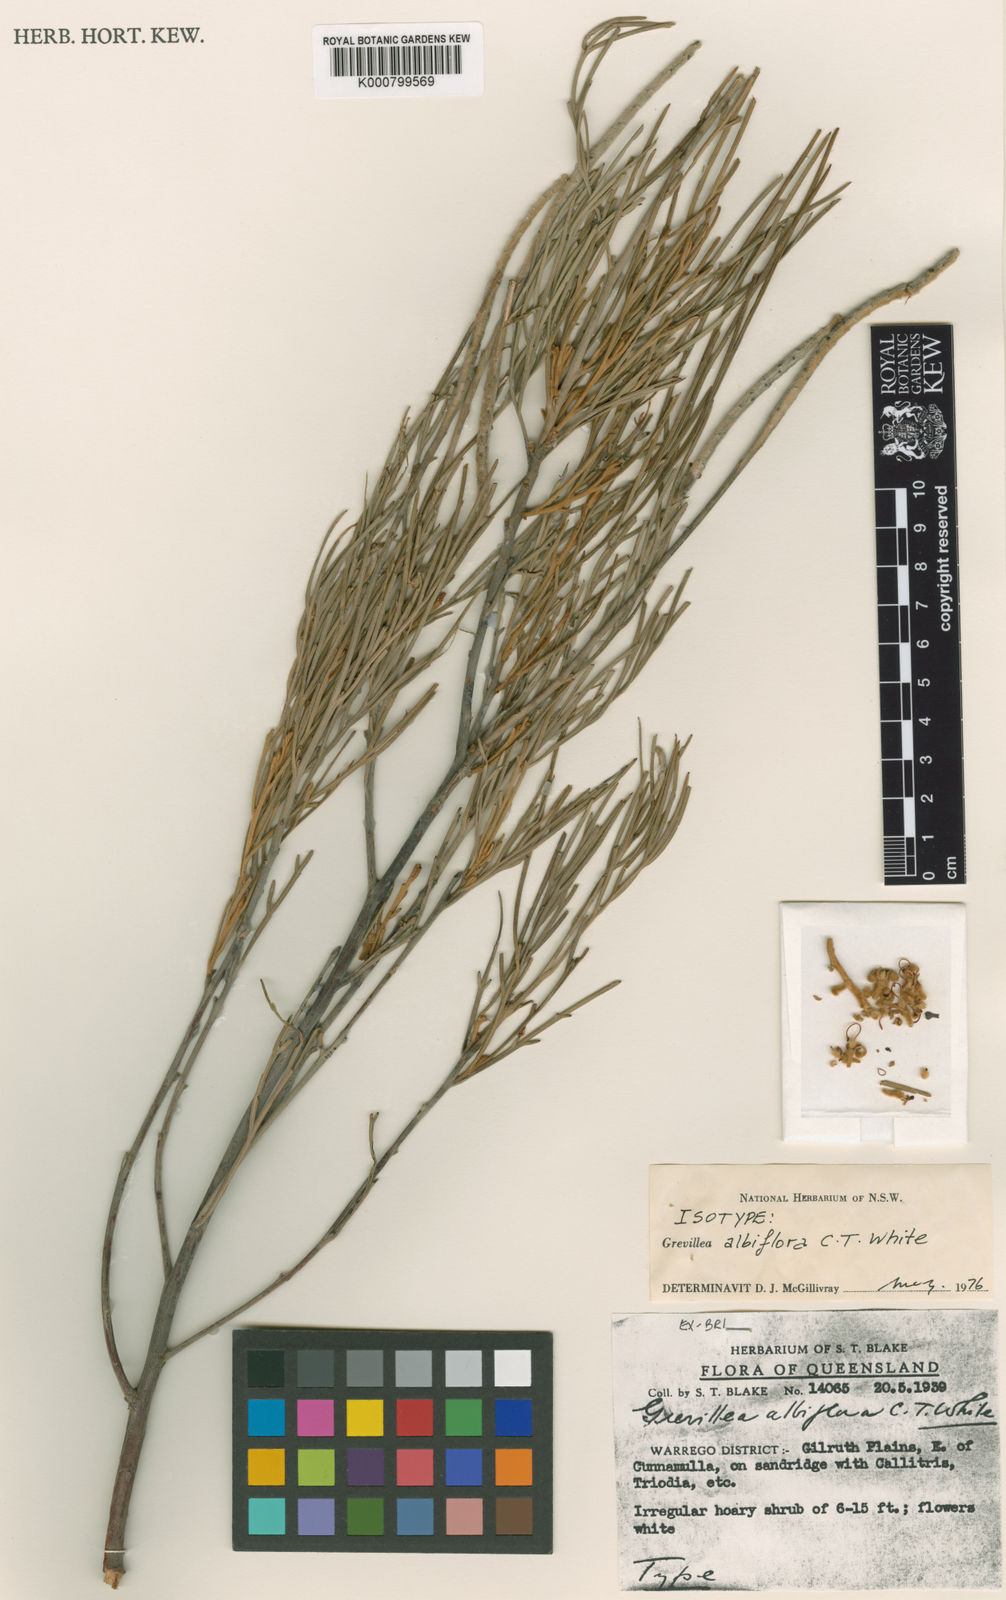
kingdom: Plantae
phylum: Tracheophyta
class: Magnoliopsida
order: Proteales
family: Proteaceae
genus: Grevillea
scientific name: Grevillea albiflora
